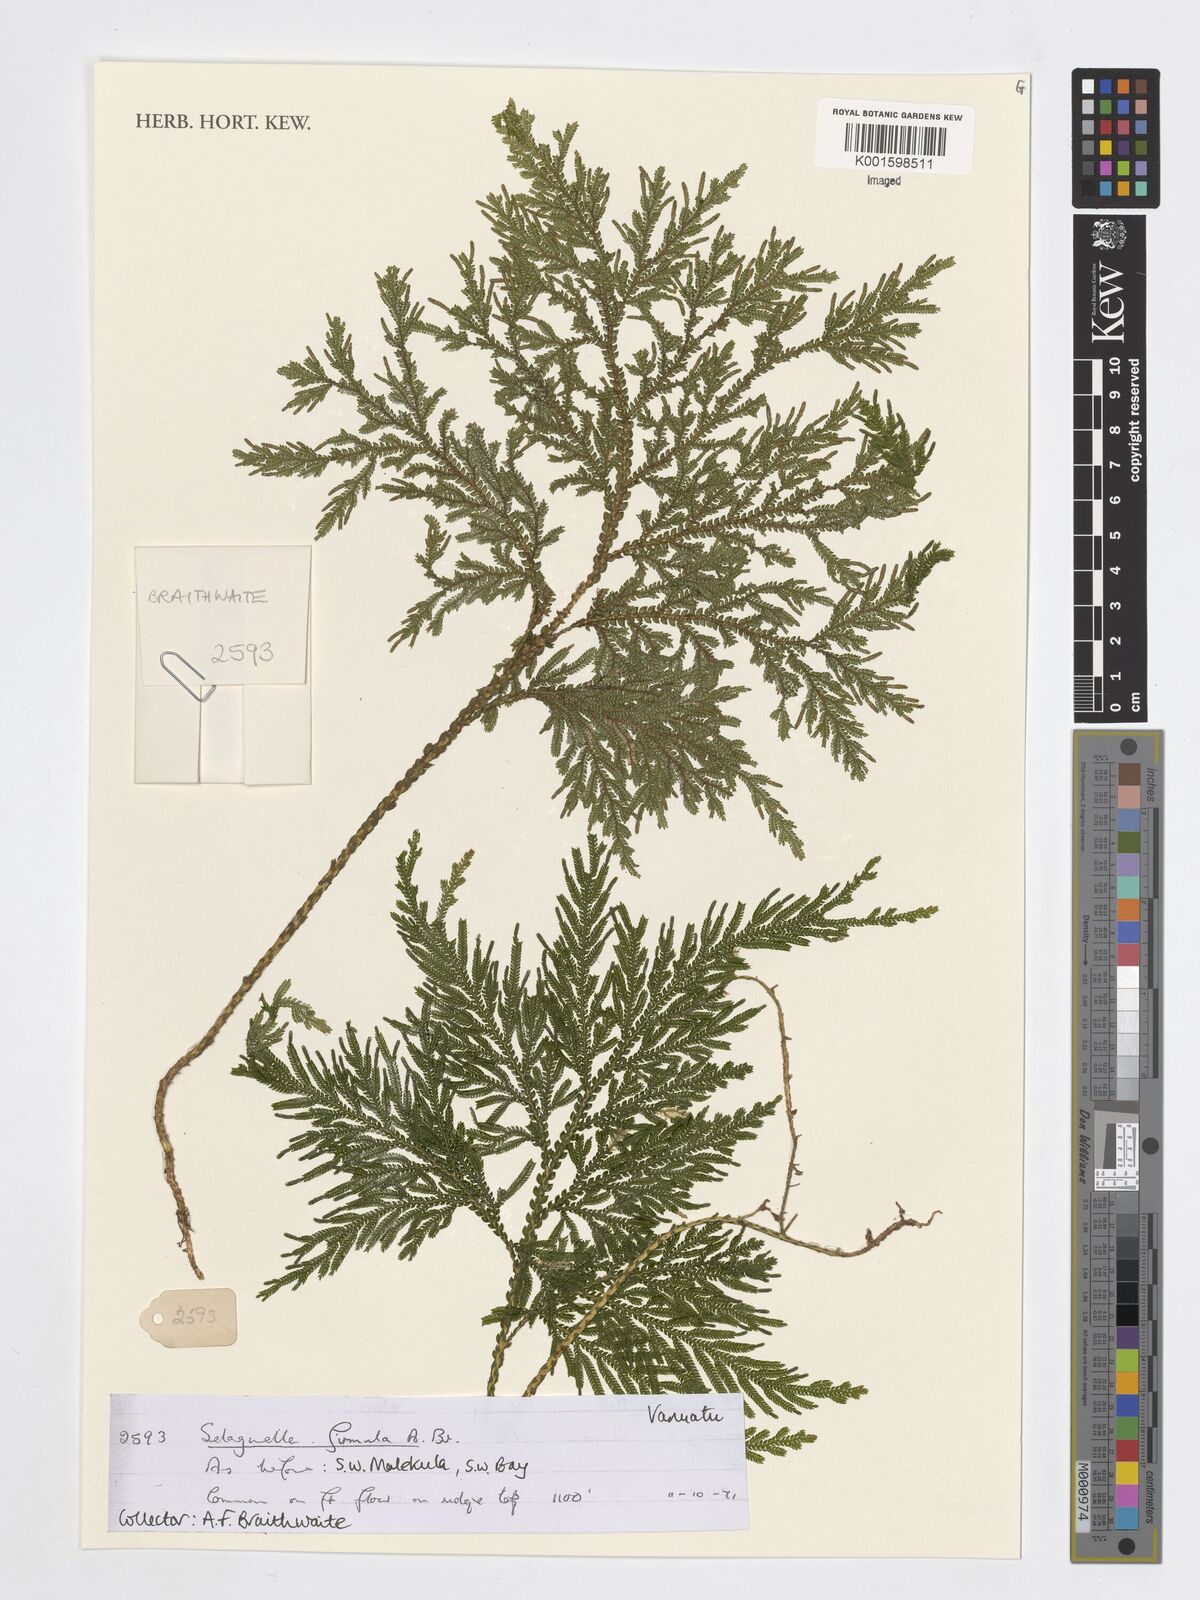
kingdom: Plantae
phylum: Tracheophyta
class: Lycopodiopsida
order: Selaginellales
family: Selaginellaceae
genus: Selaginella
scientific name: Selaginella firmula
